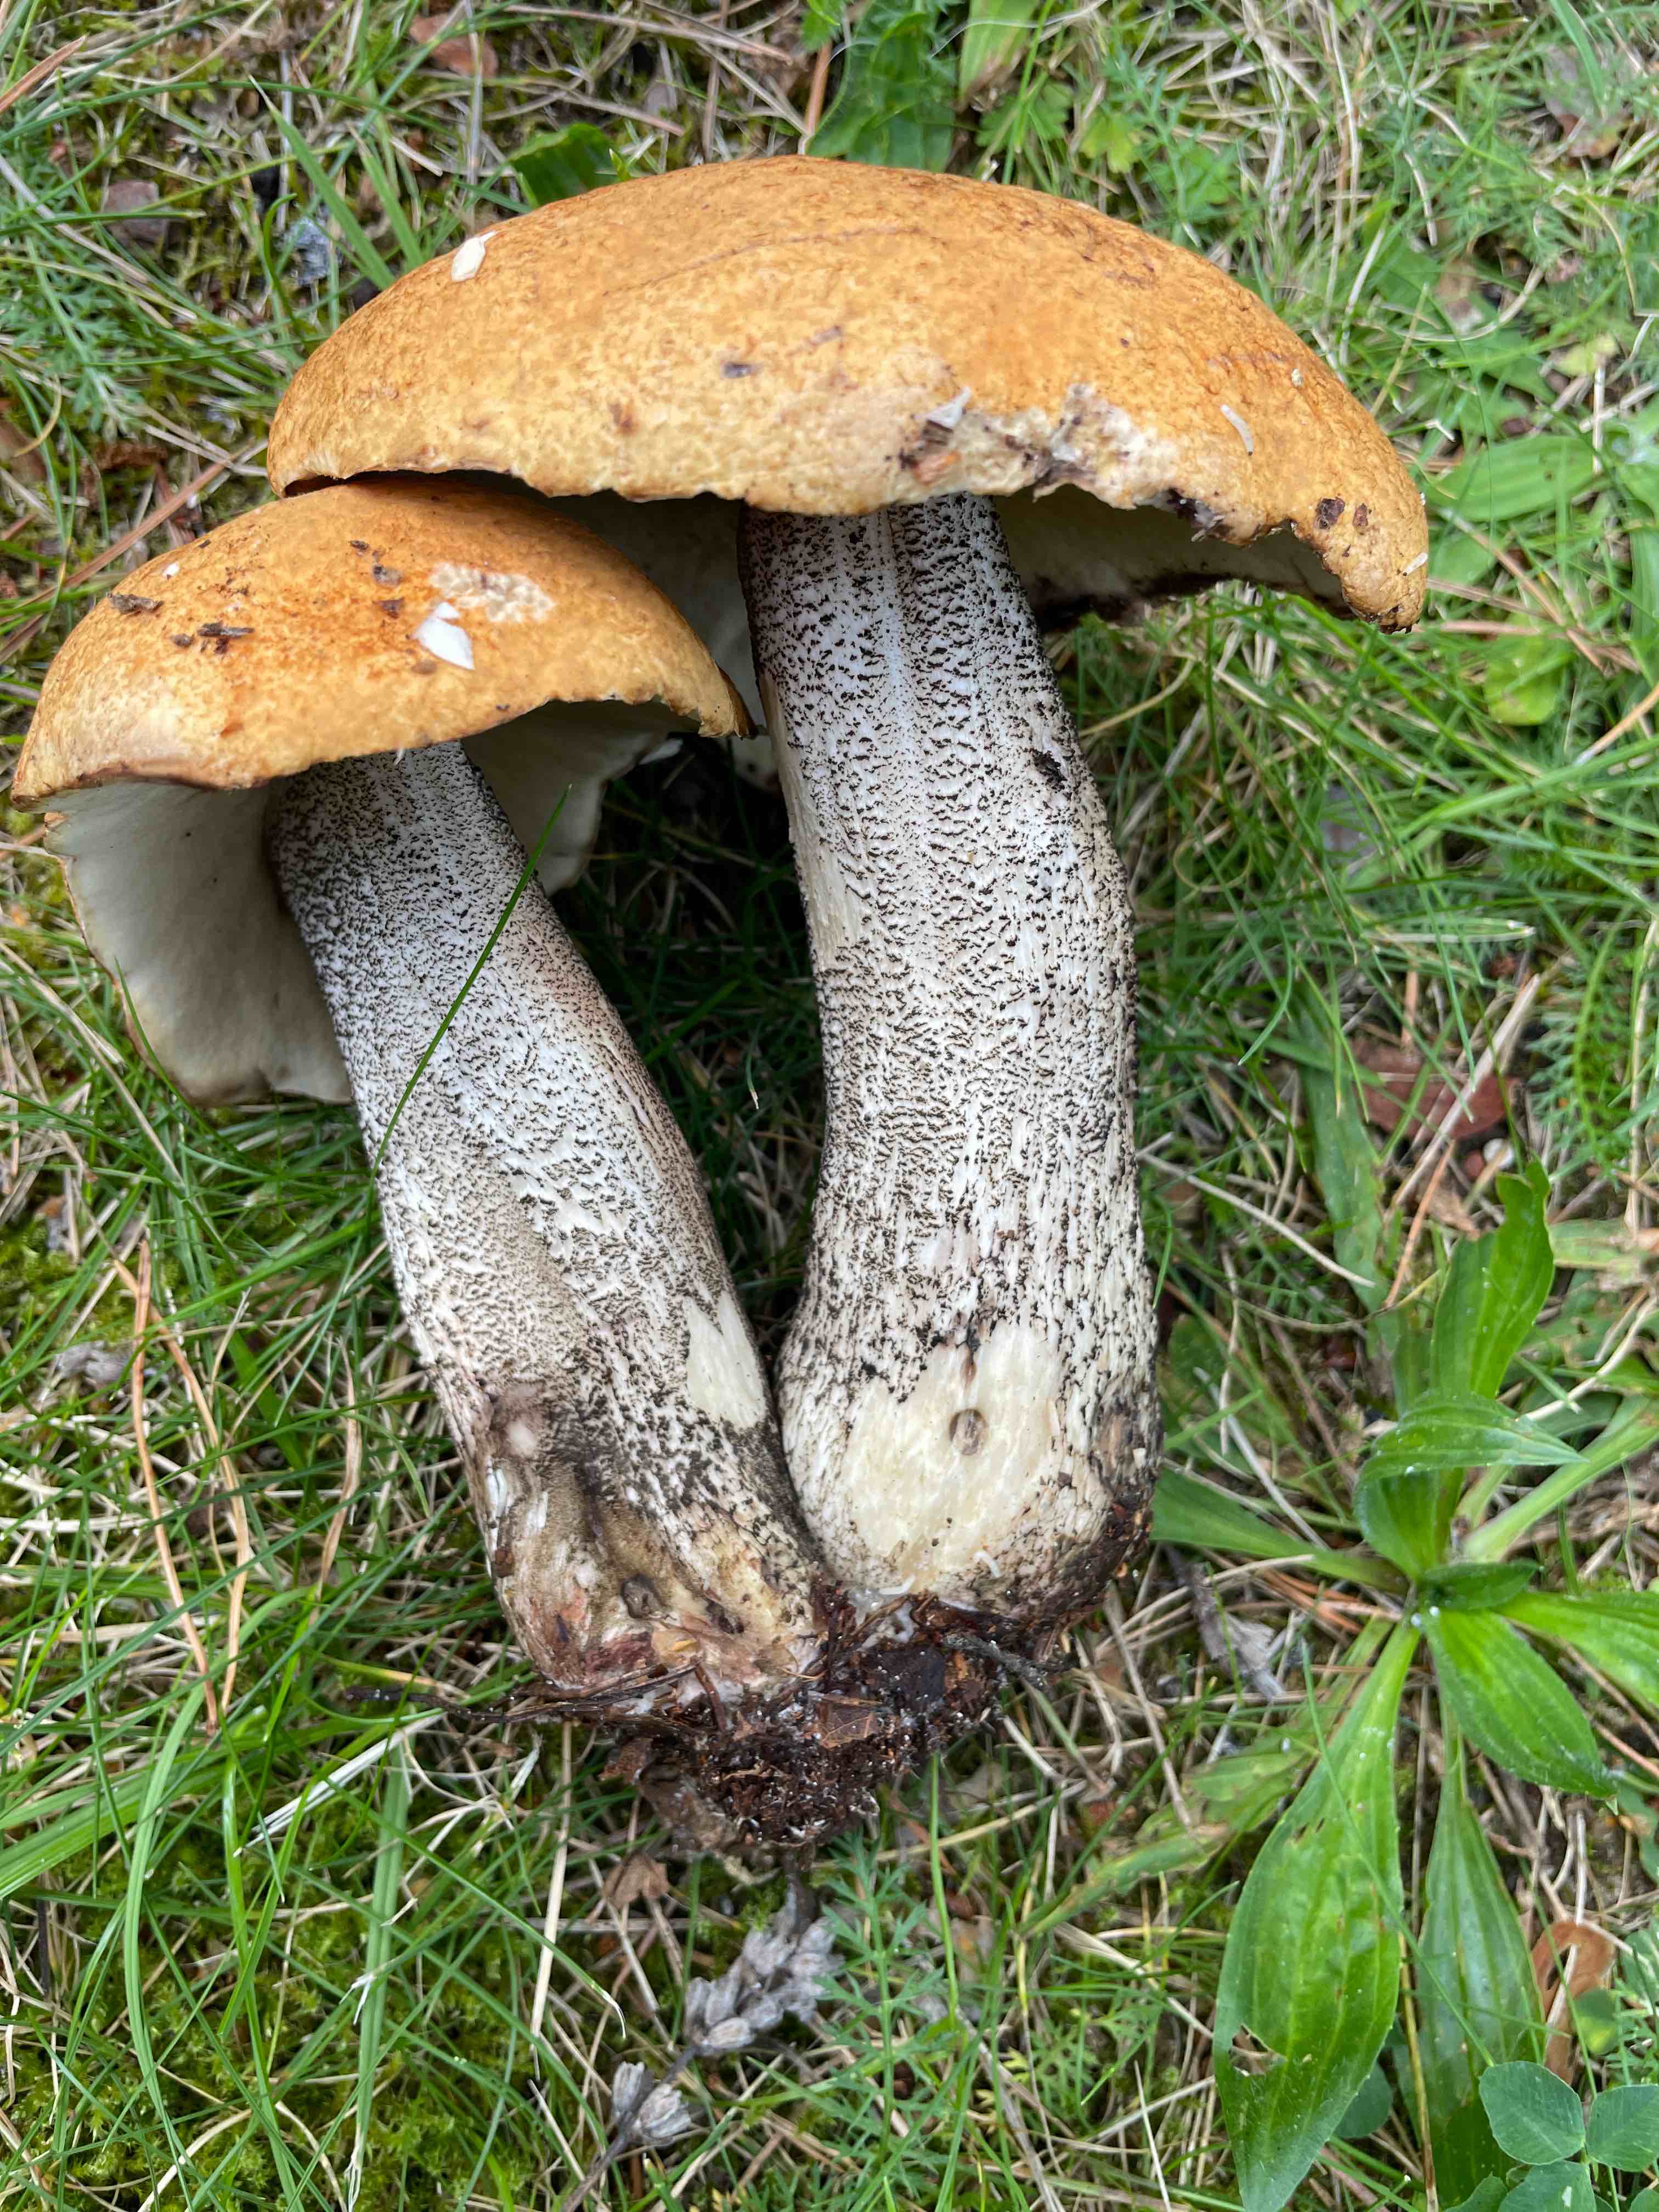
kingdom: Fungi
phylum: Basidiomycota
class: Agaricomycetes
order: Boletales
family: Boletaceae
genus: Leccinum
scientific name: Leccinum versipelle
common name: orange skælrørhat
